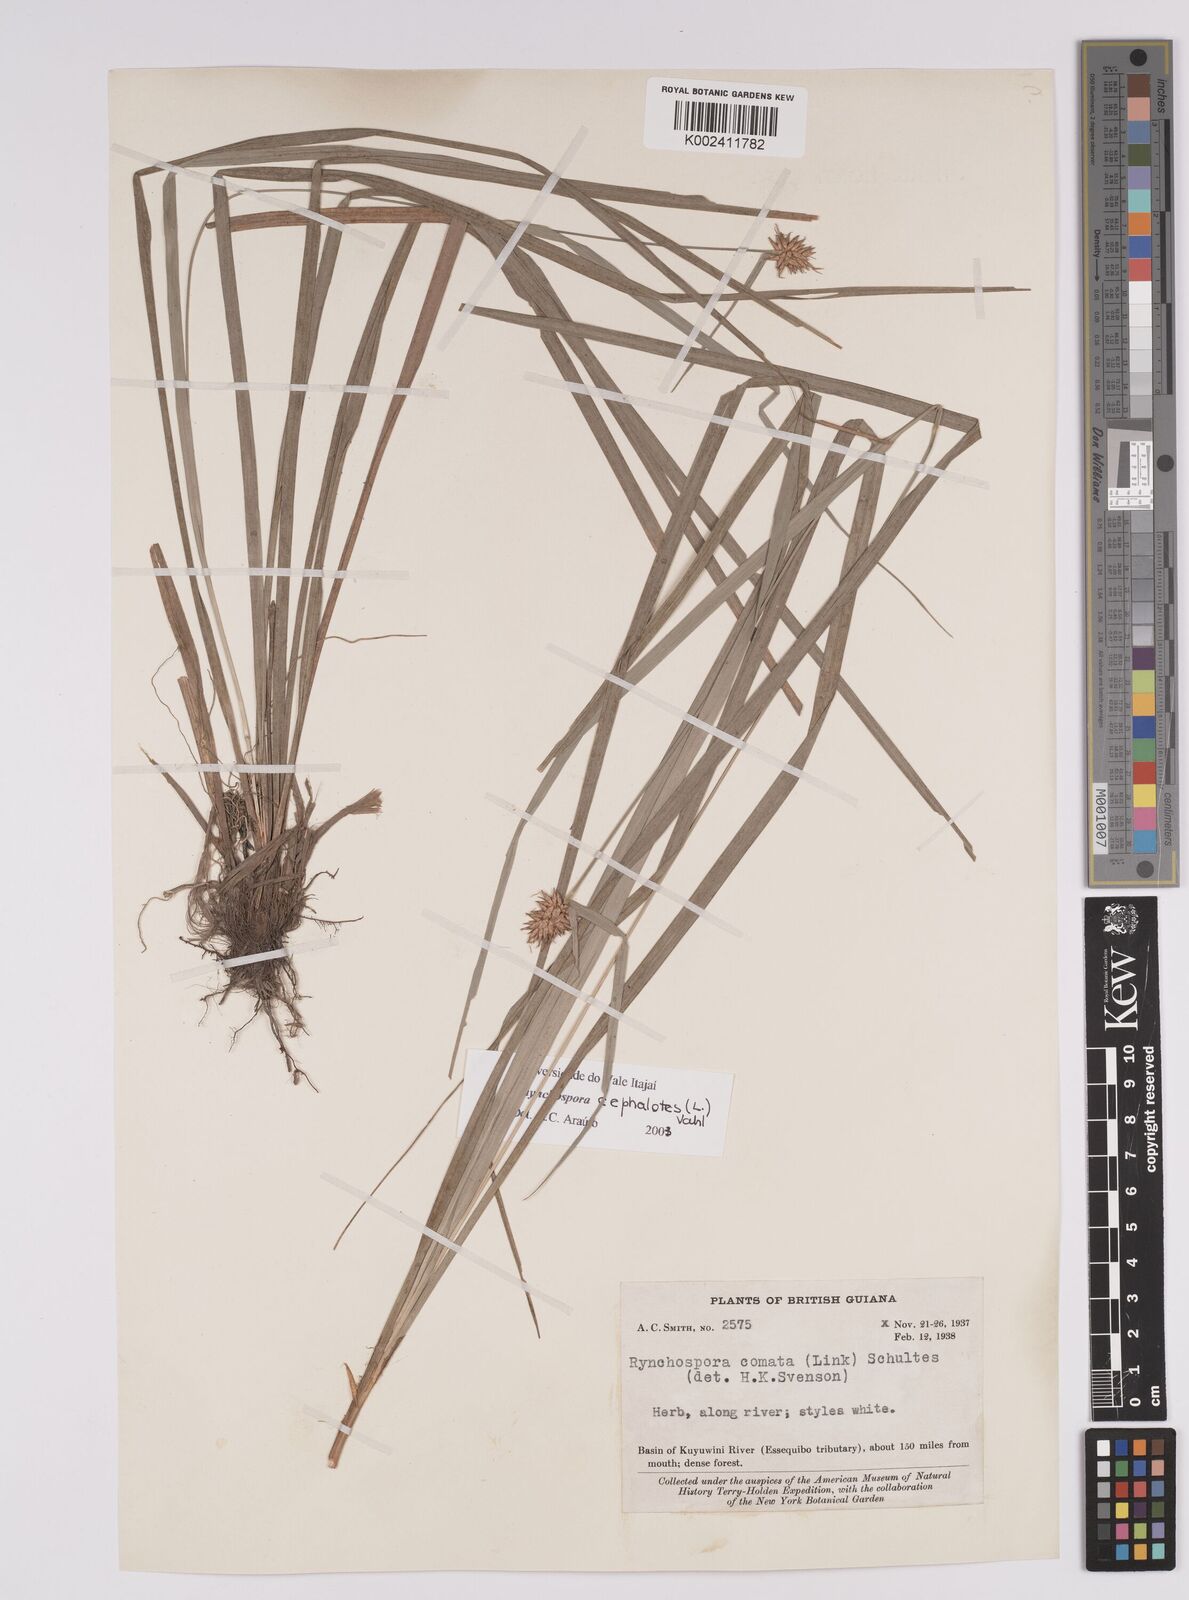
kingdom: Plantae
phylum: Tracheophyta
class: Liliopsida
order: Poales
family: Cyperaceae
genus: Rhynchospora
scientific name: Rhynchospora cephalotes
